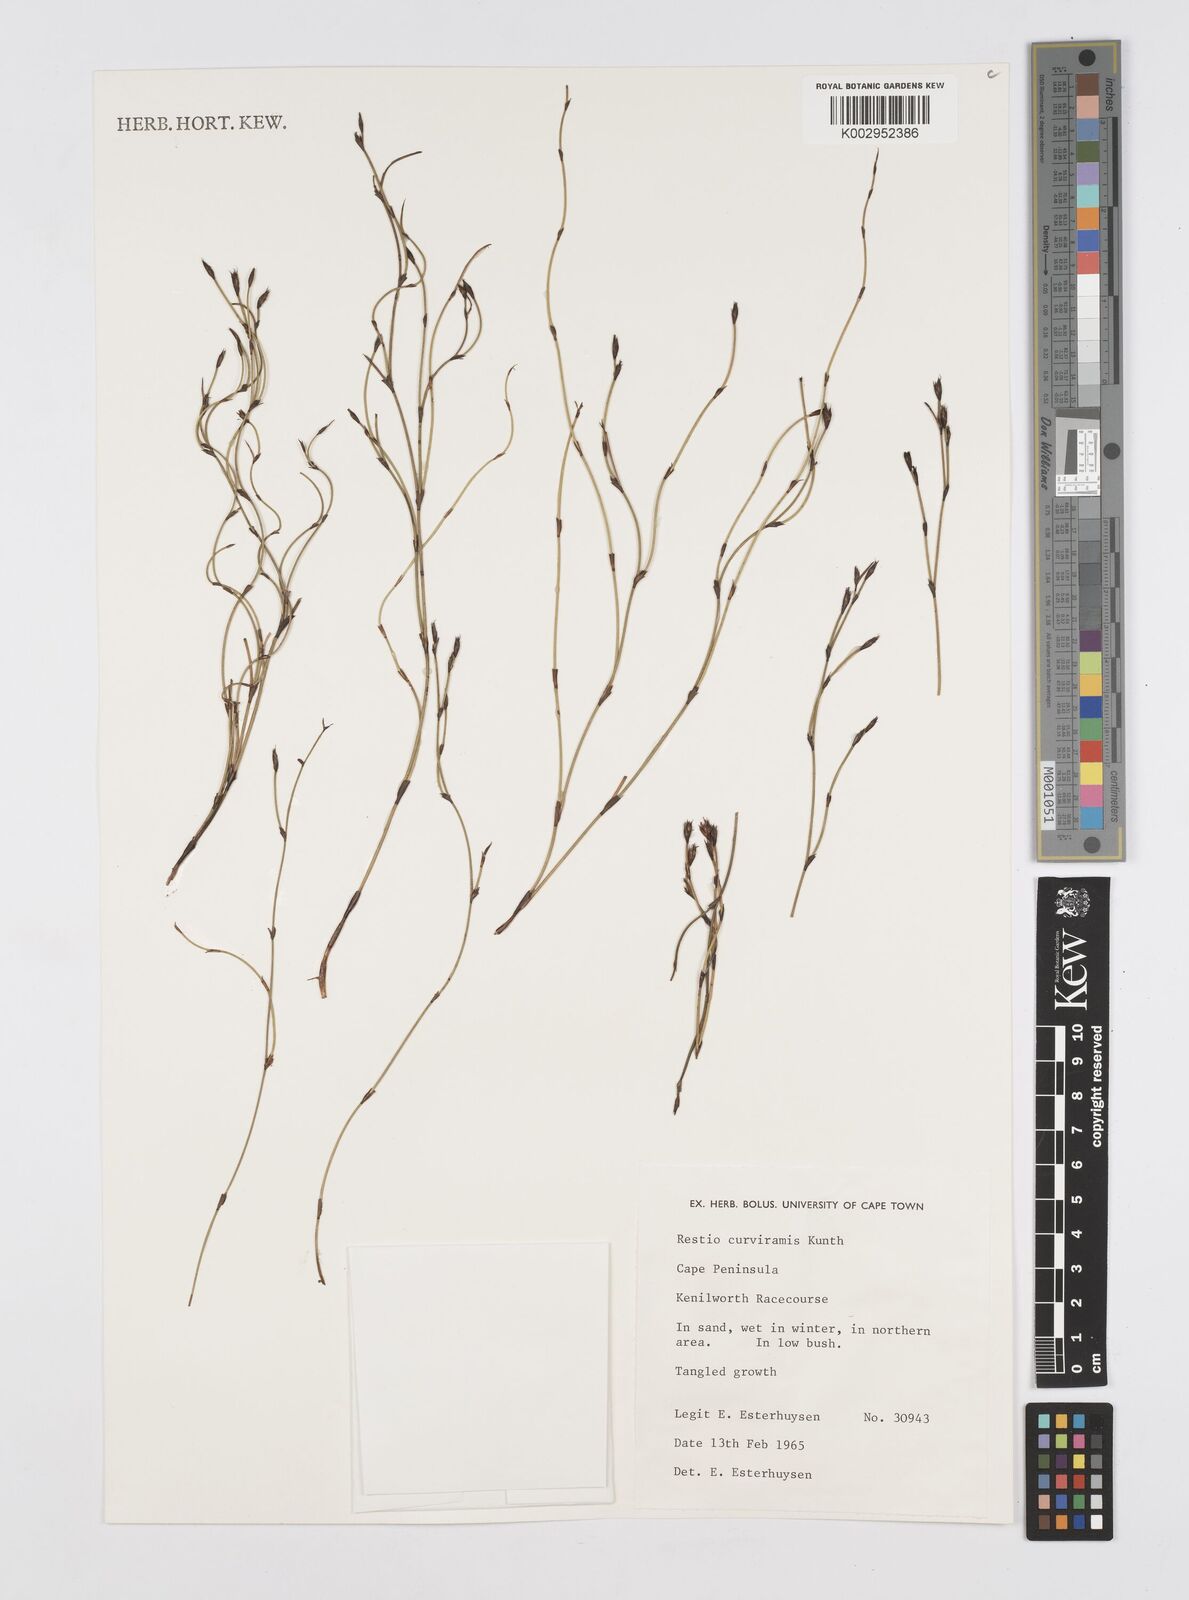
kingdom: Plantae
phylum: Tracheophyta
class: Liliopsida
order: Poales
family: Restionaceae
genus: Restio
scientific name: Restio curviramis
